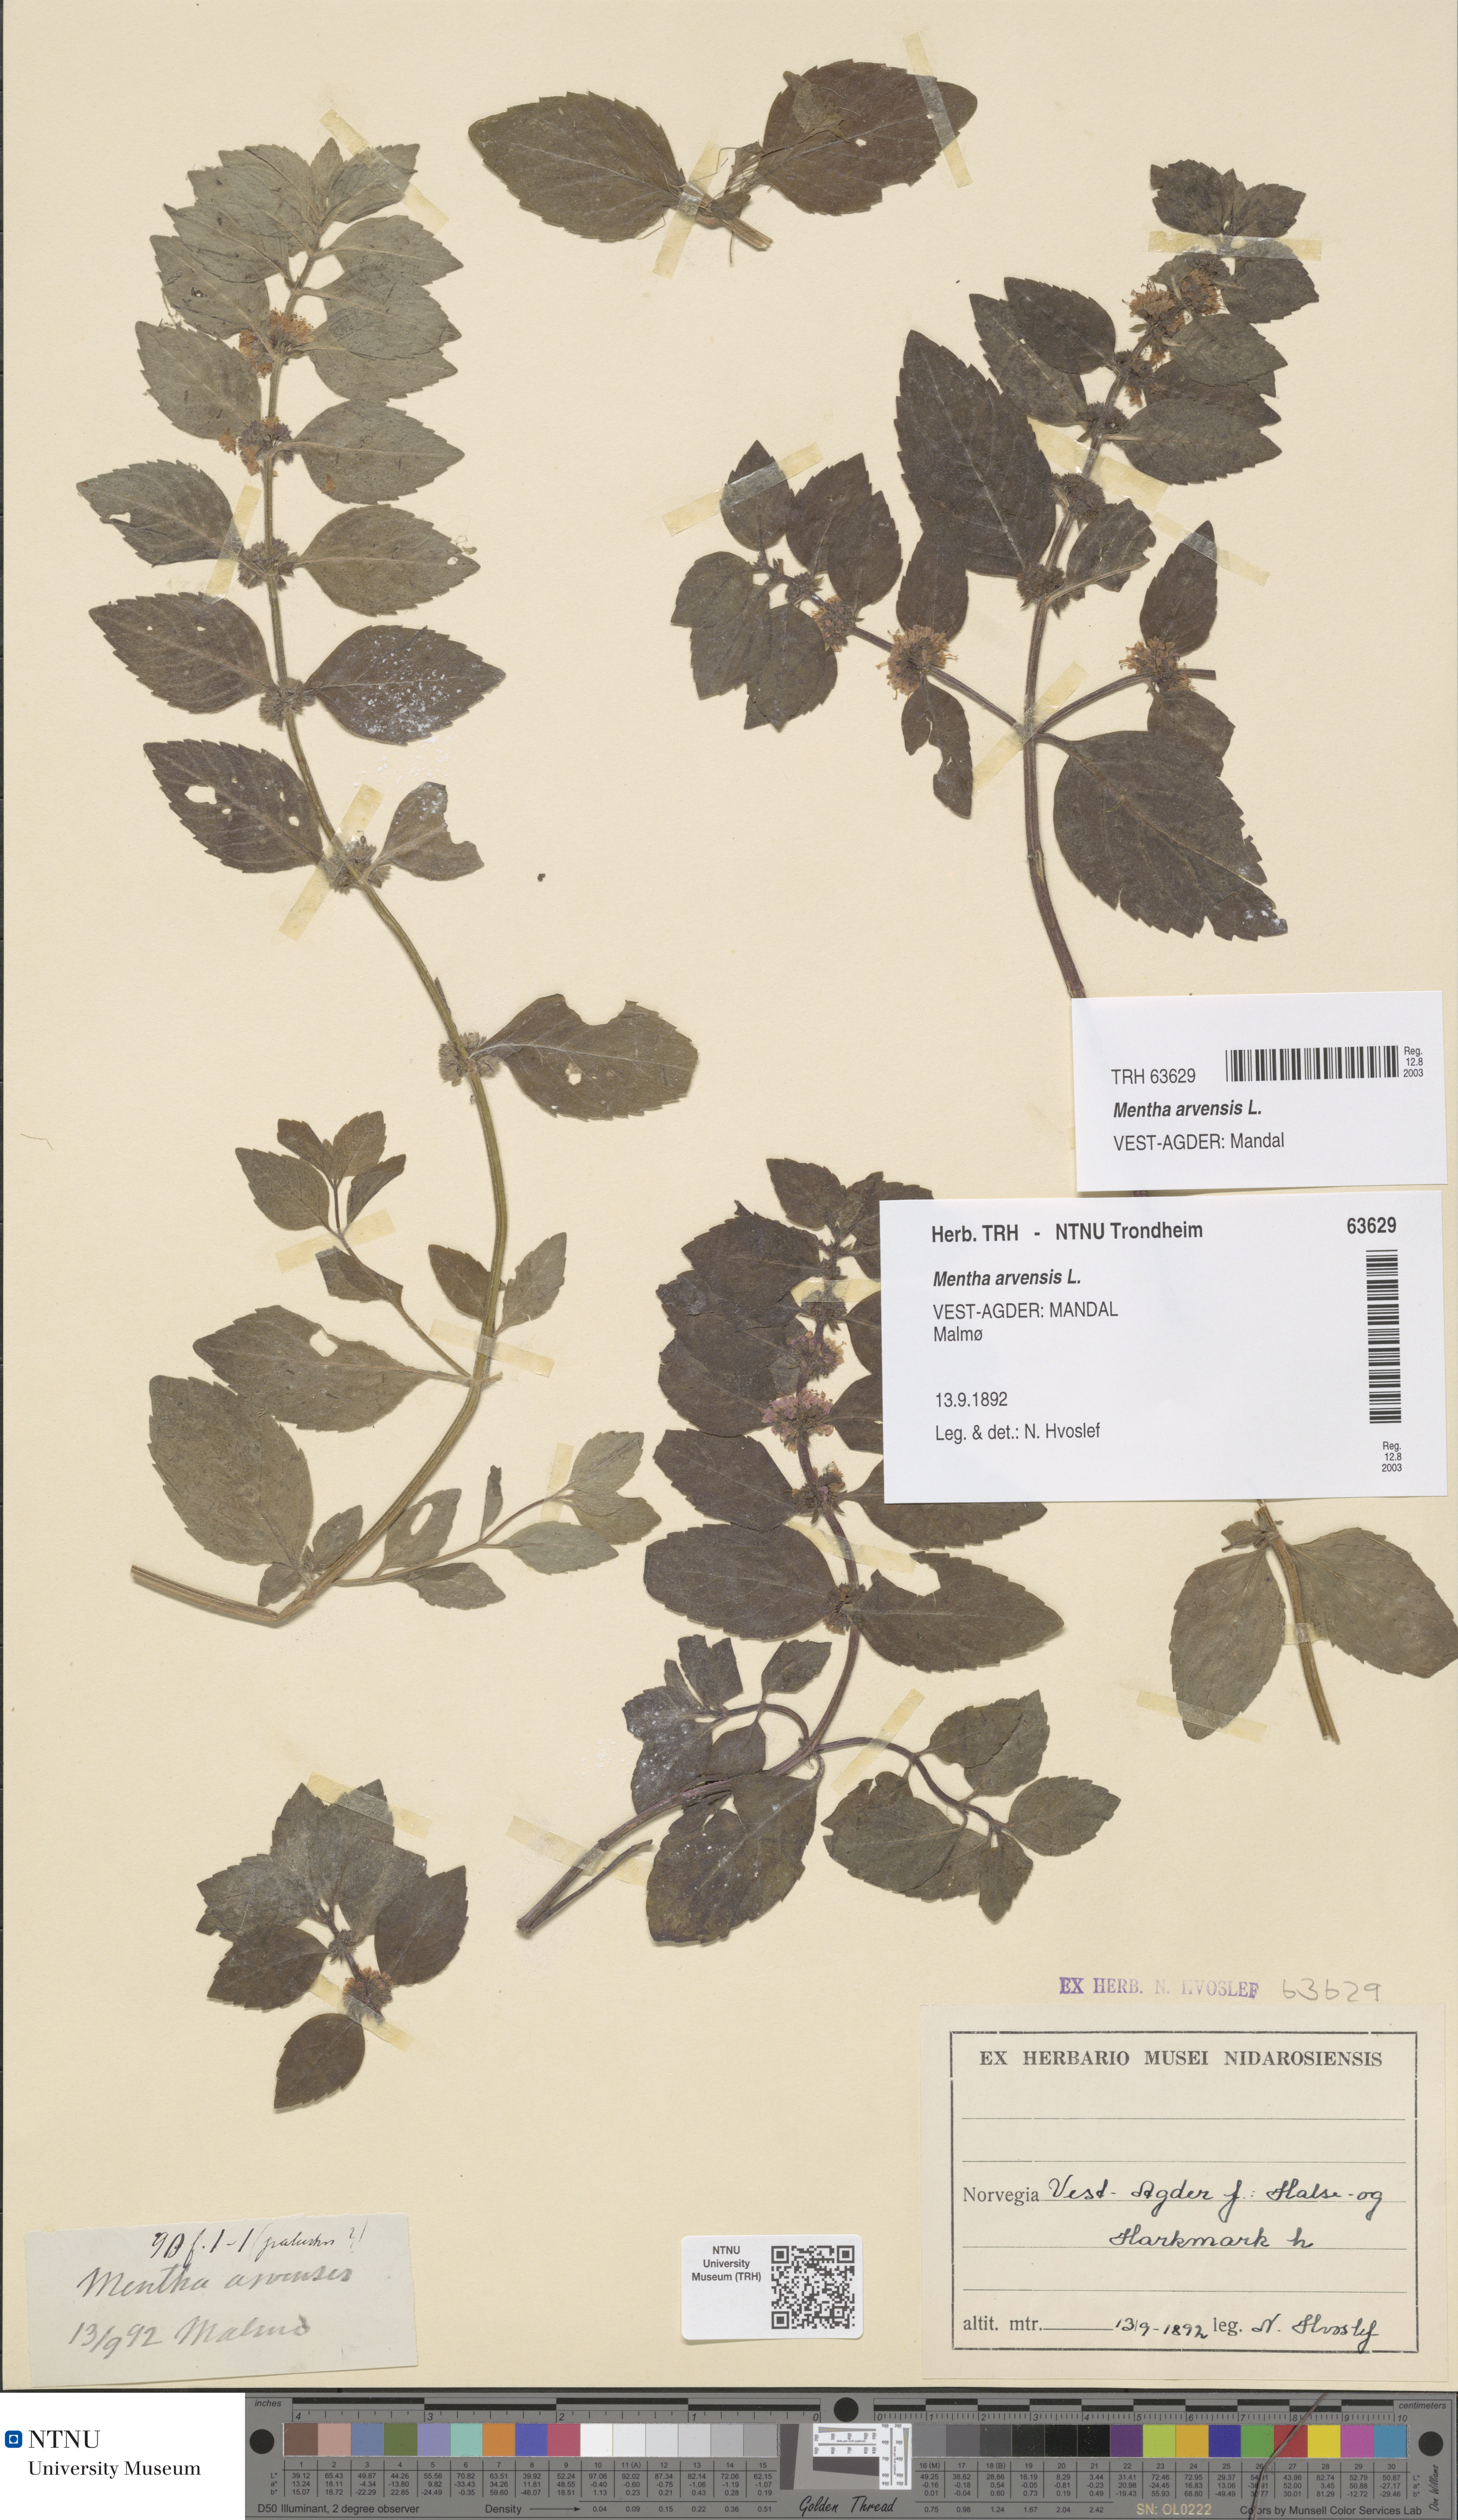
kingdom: Plantae
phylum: Tracheophyta
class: Magnoliopsida
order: Lamiales
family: Lamiaceae
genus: Mentha
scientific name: Mentha arvensis
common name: Corn mint
